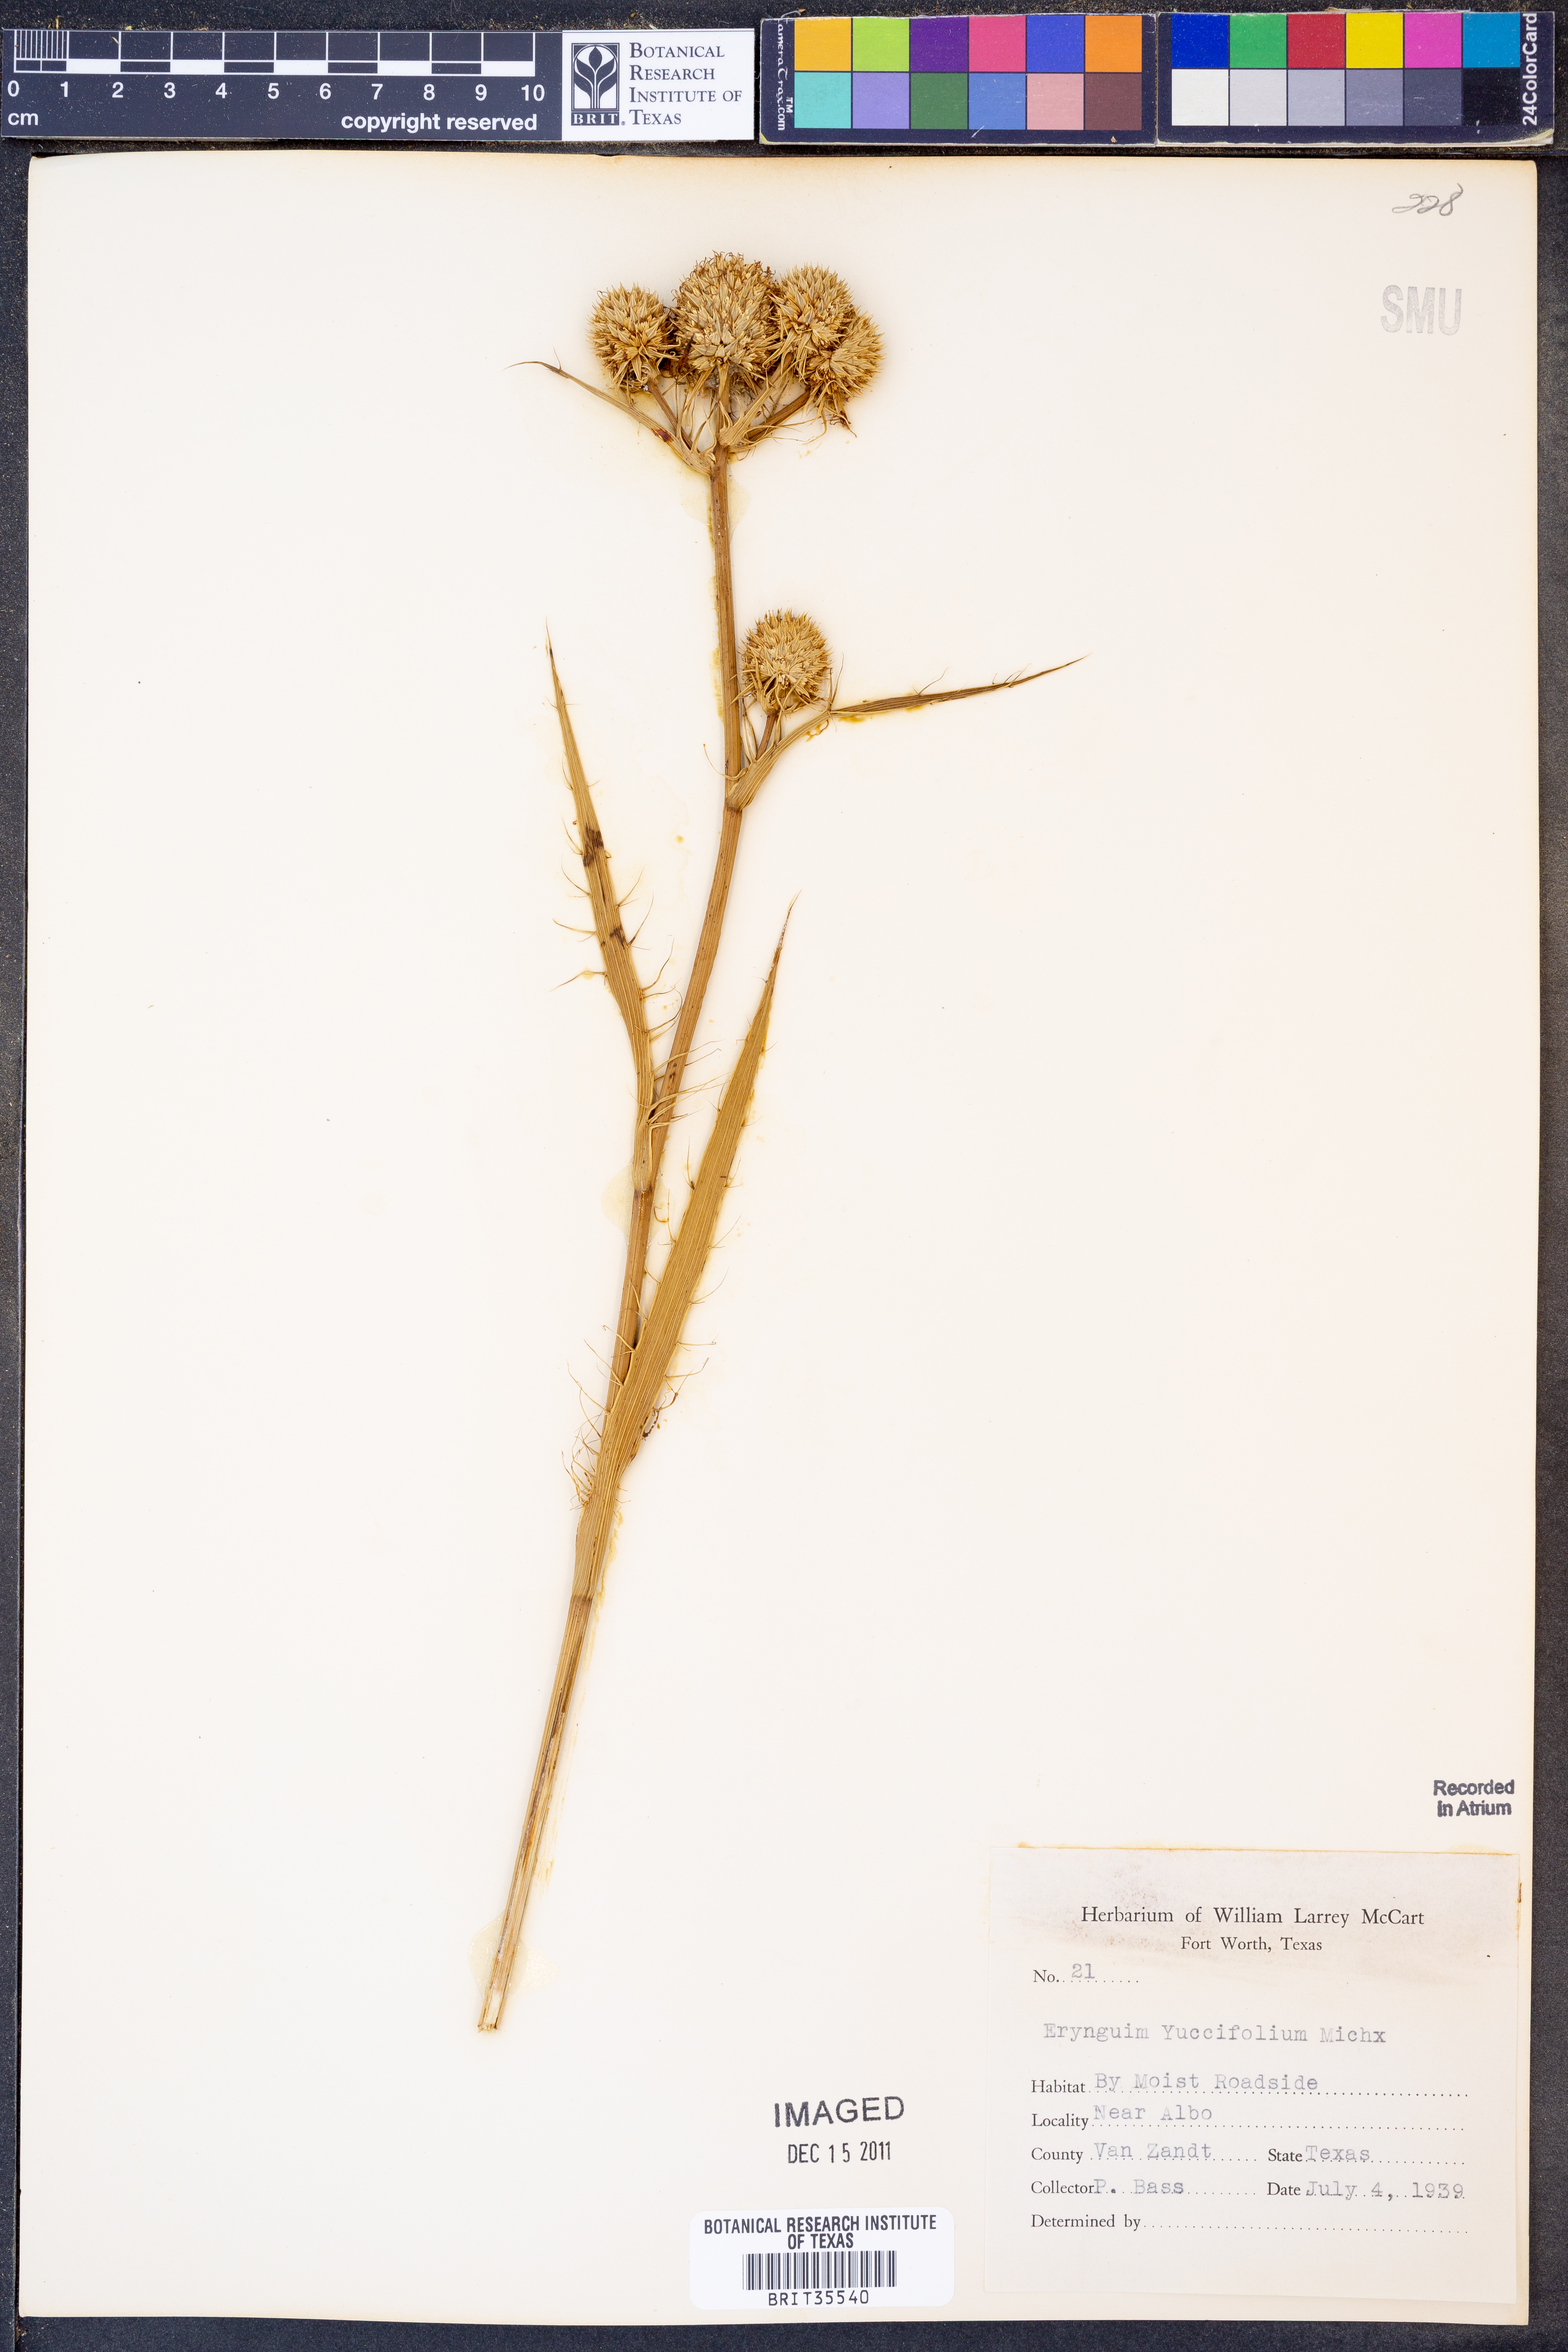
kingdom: Plantae
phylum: Tracheophyta
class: Magnoliopsida
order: Apiales
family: Apiaceae
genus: Eryngium
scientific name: Eryngium yuccifolium
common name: Button eryngo
